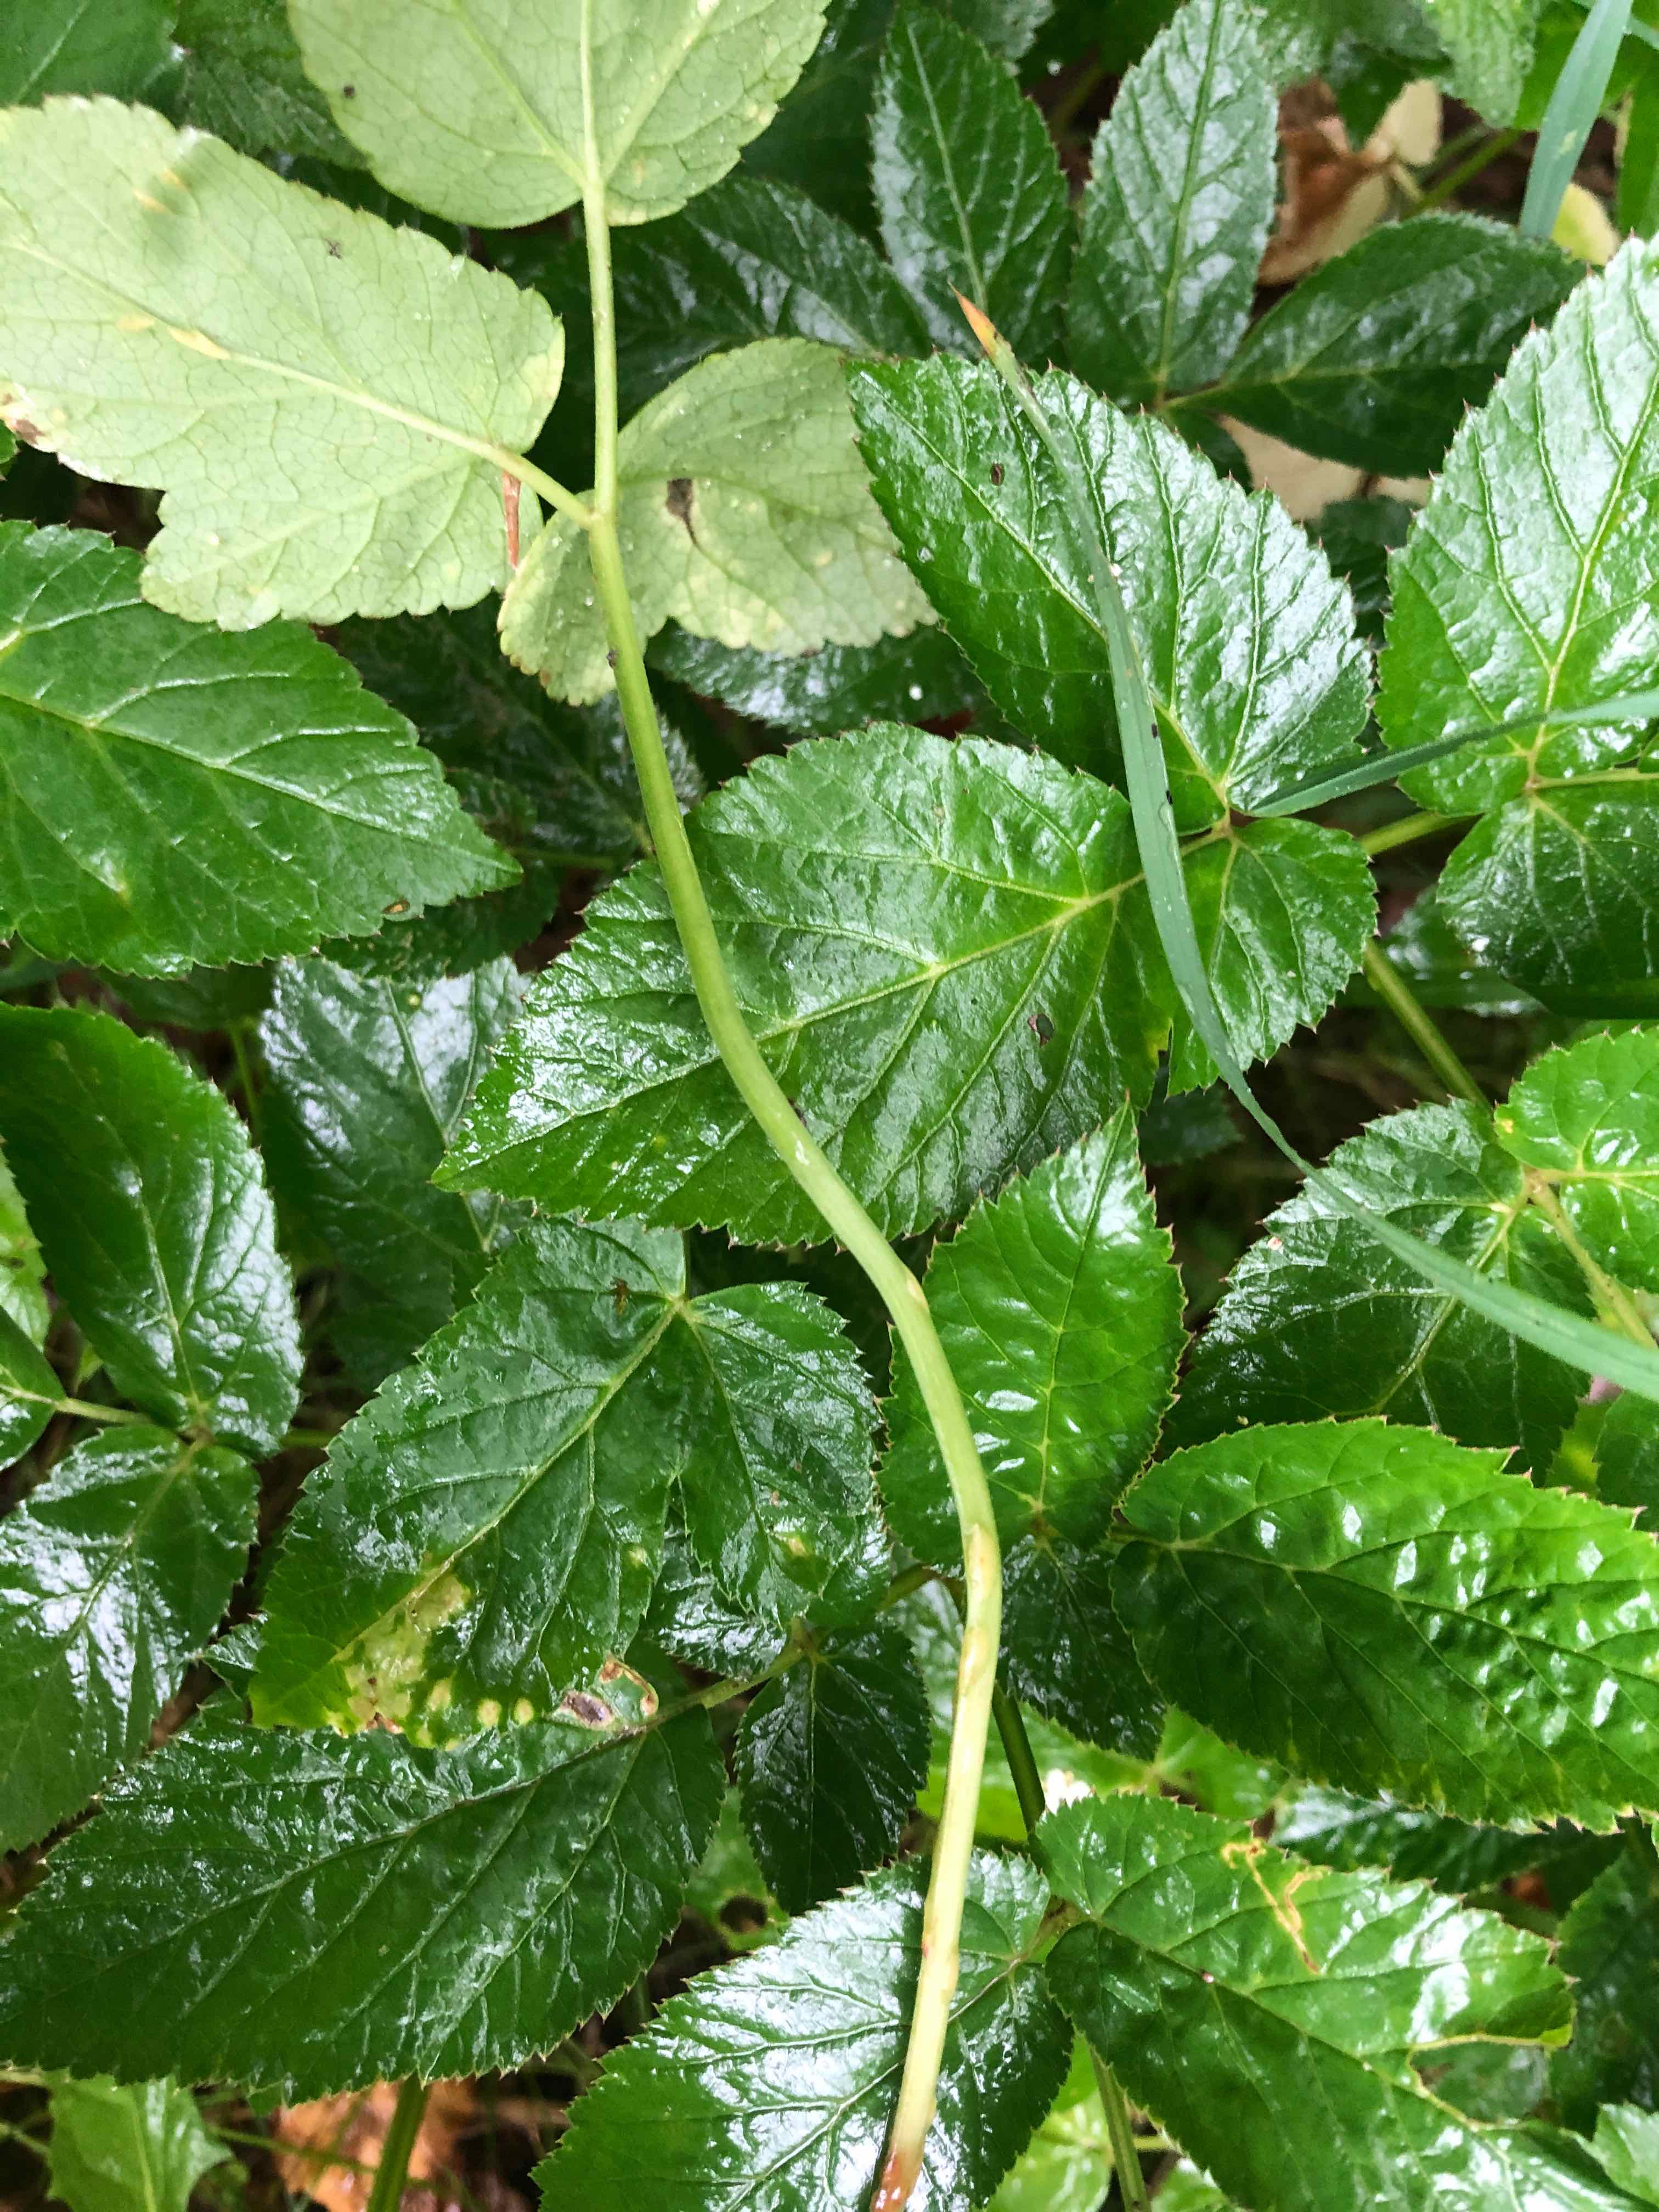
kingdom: Fungi
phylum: Ascomycota
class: Taphrinomycetes
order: Taphrinales
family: Taphrinaceae
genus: Protomyces
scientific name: Protomyces macrosporus
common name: skvalderkål-vablesæk
